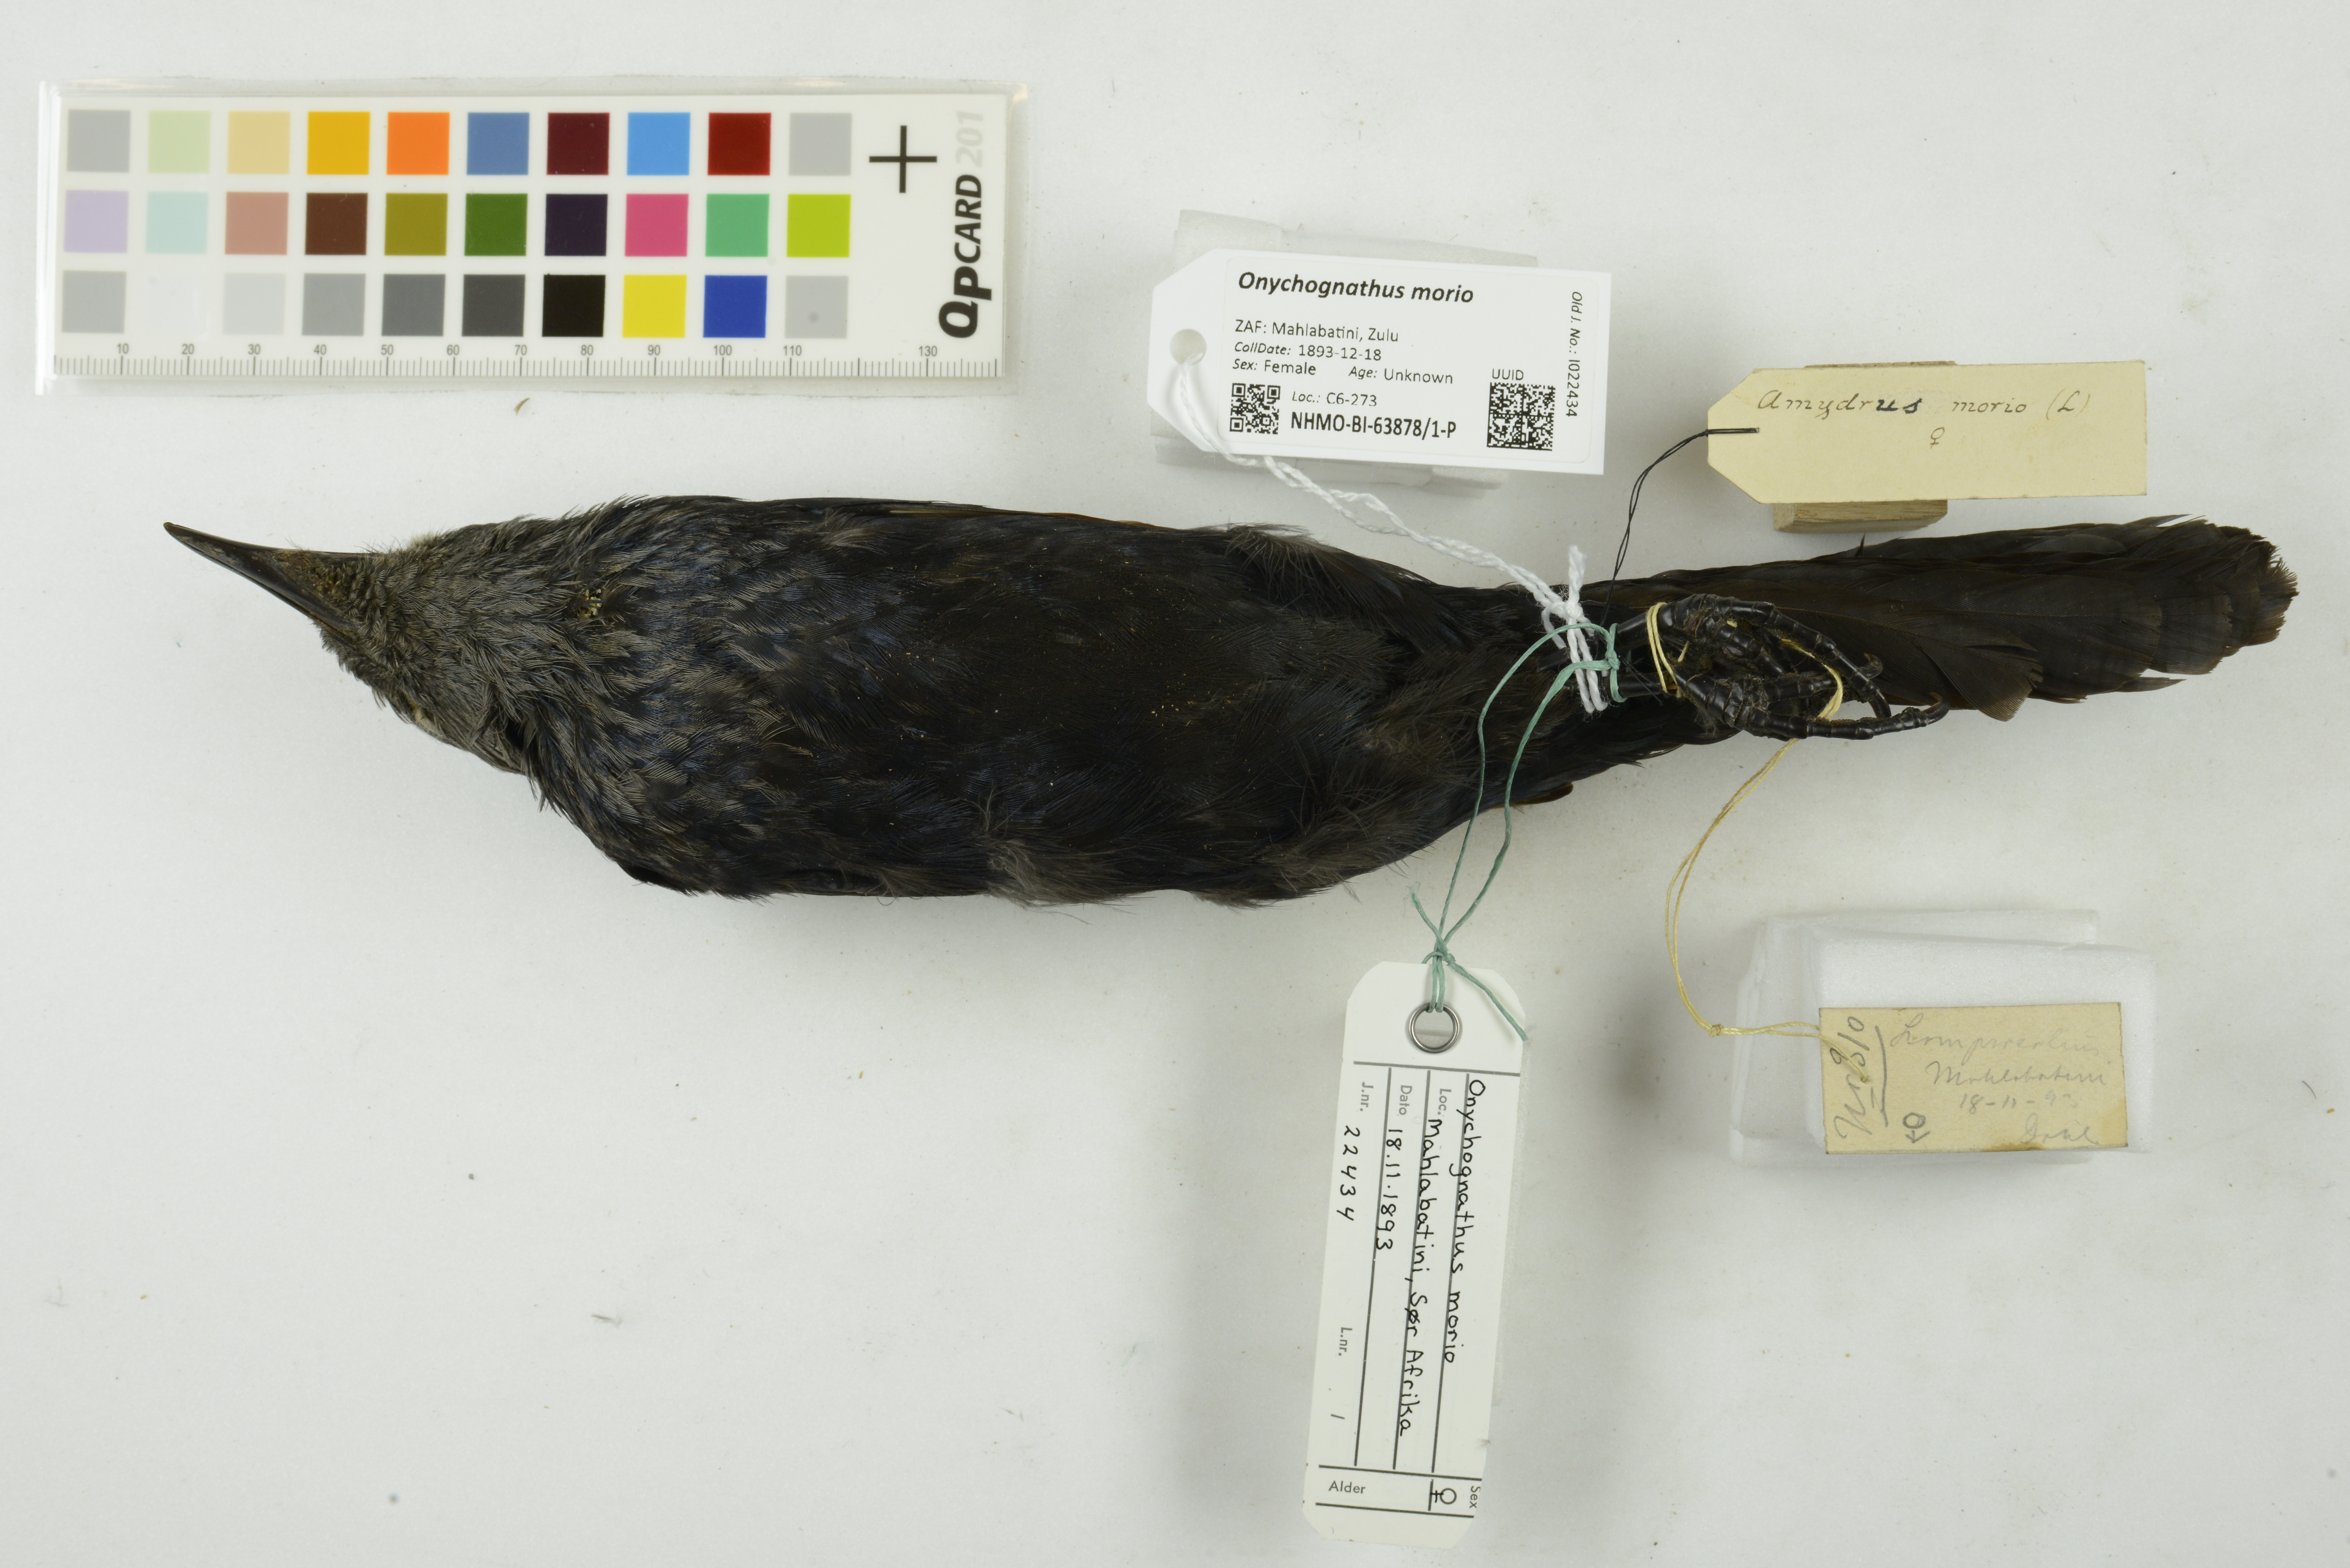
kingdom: Animalia
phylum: Chordata
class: Aves
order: Passeriformes
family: Sturnidae
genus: Onychognathus
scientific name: Onychognathus morio
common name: Red-winged starling
